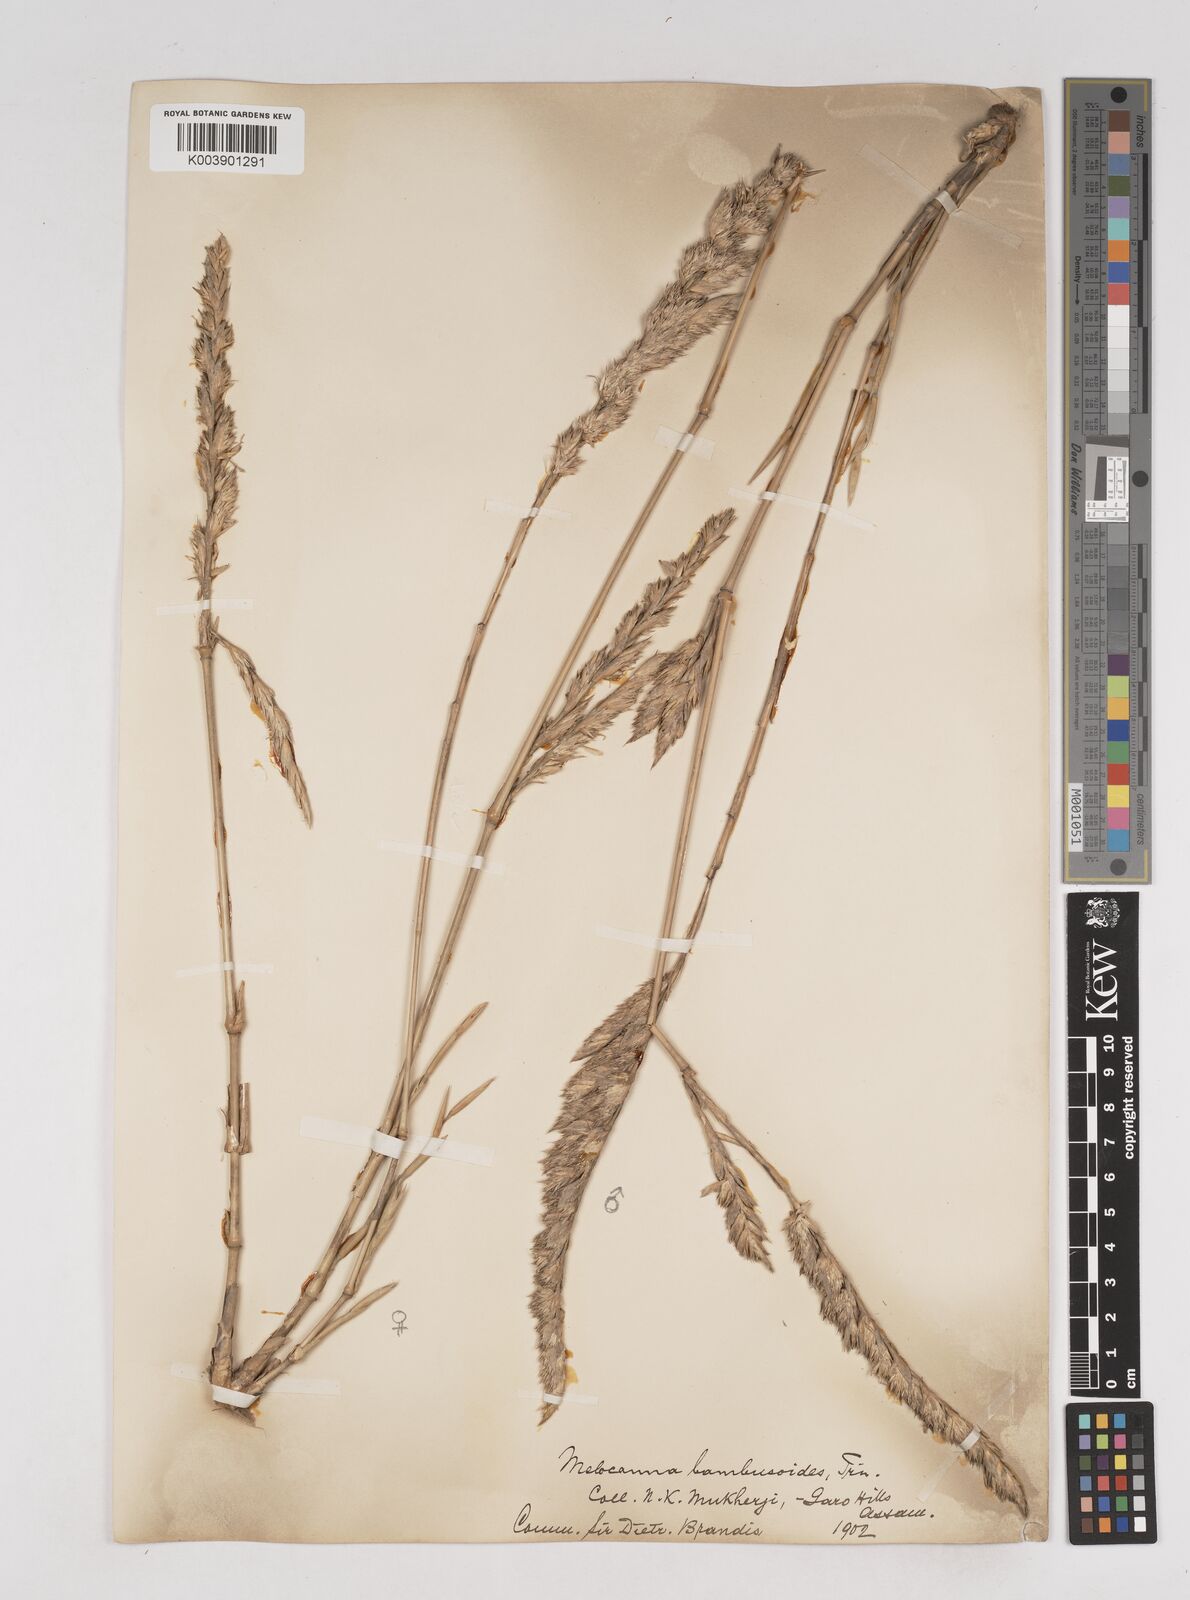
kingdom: Plantae
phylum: Tracheophyta
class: Liliopsida
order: Poales
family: Poaceae
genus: Melocanna
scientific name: Melocanna baccifera
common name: Berry bamboo
